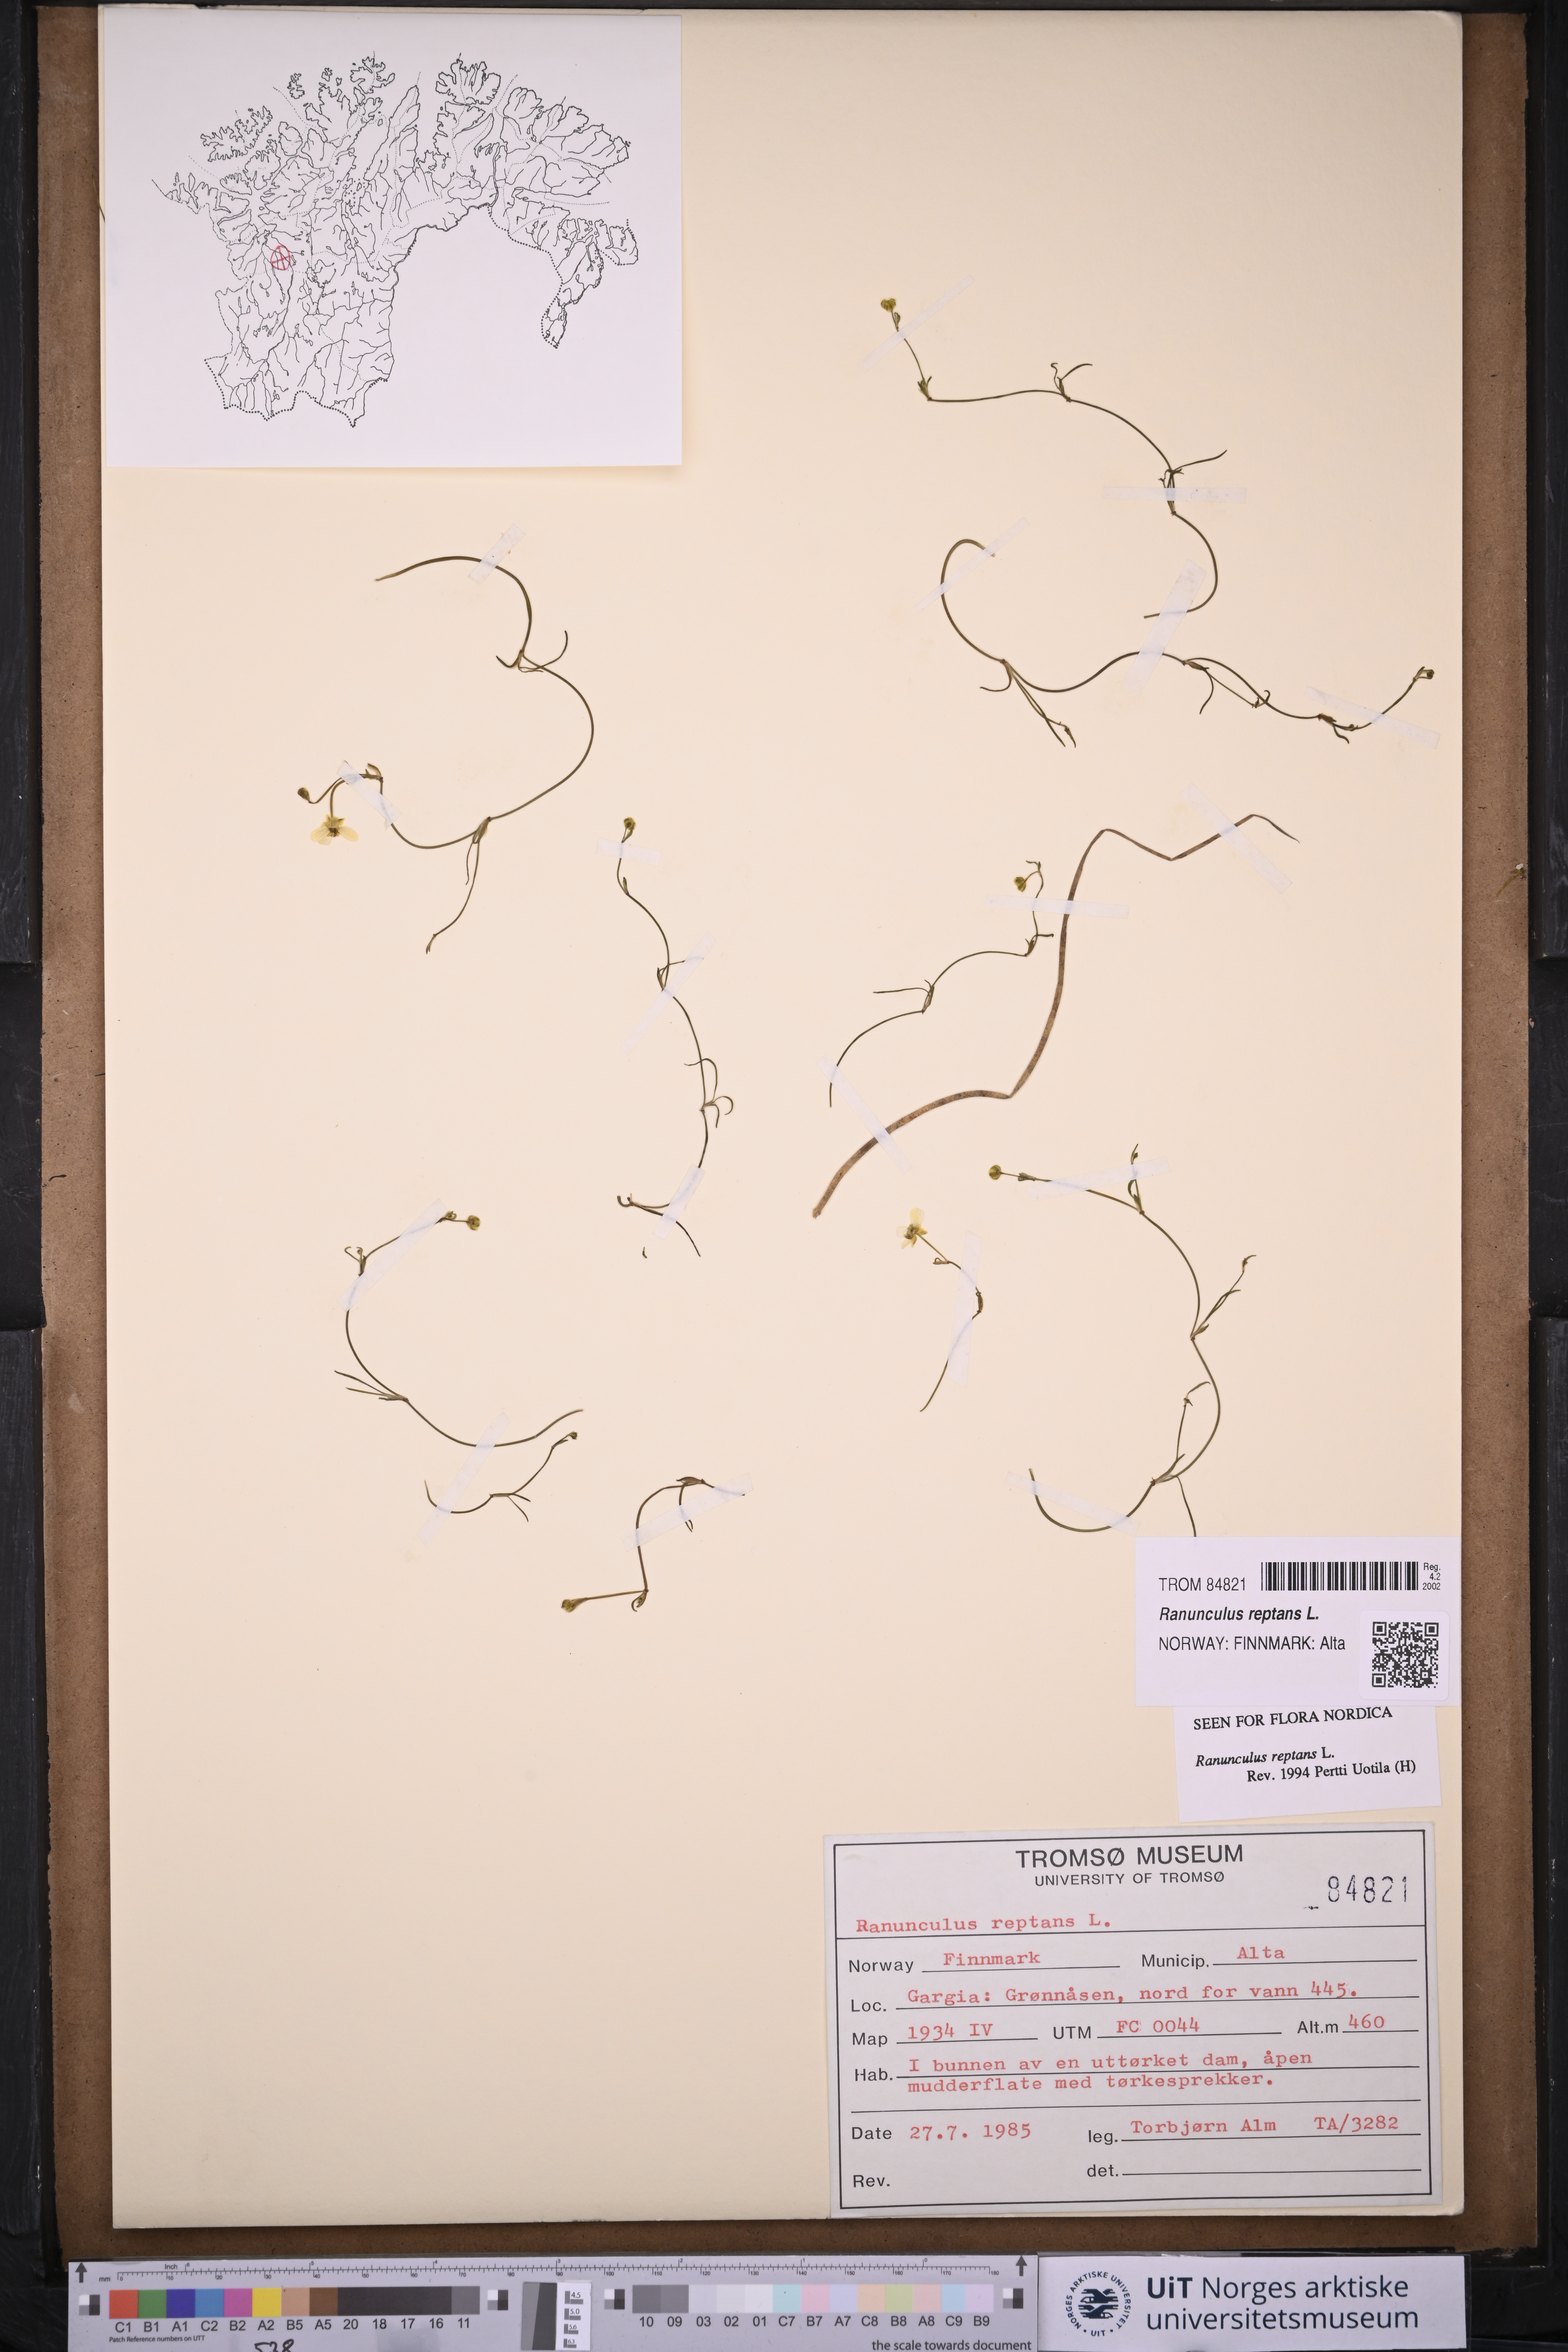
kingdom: Plantae
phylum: Tracheophyta
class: Magnoliopsida
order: Ranunculales
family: Ranunculaceae
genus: Ranunculus
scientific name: Ranunculus reptans
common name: Creeping spearwort
